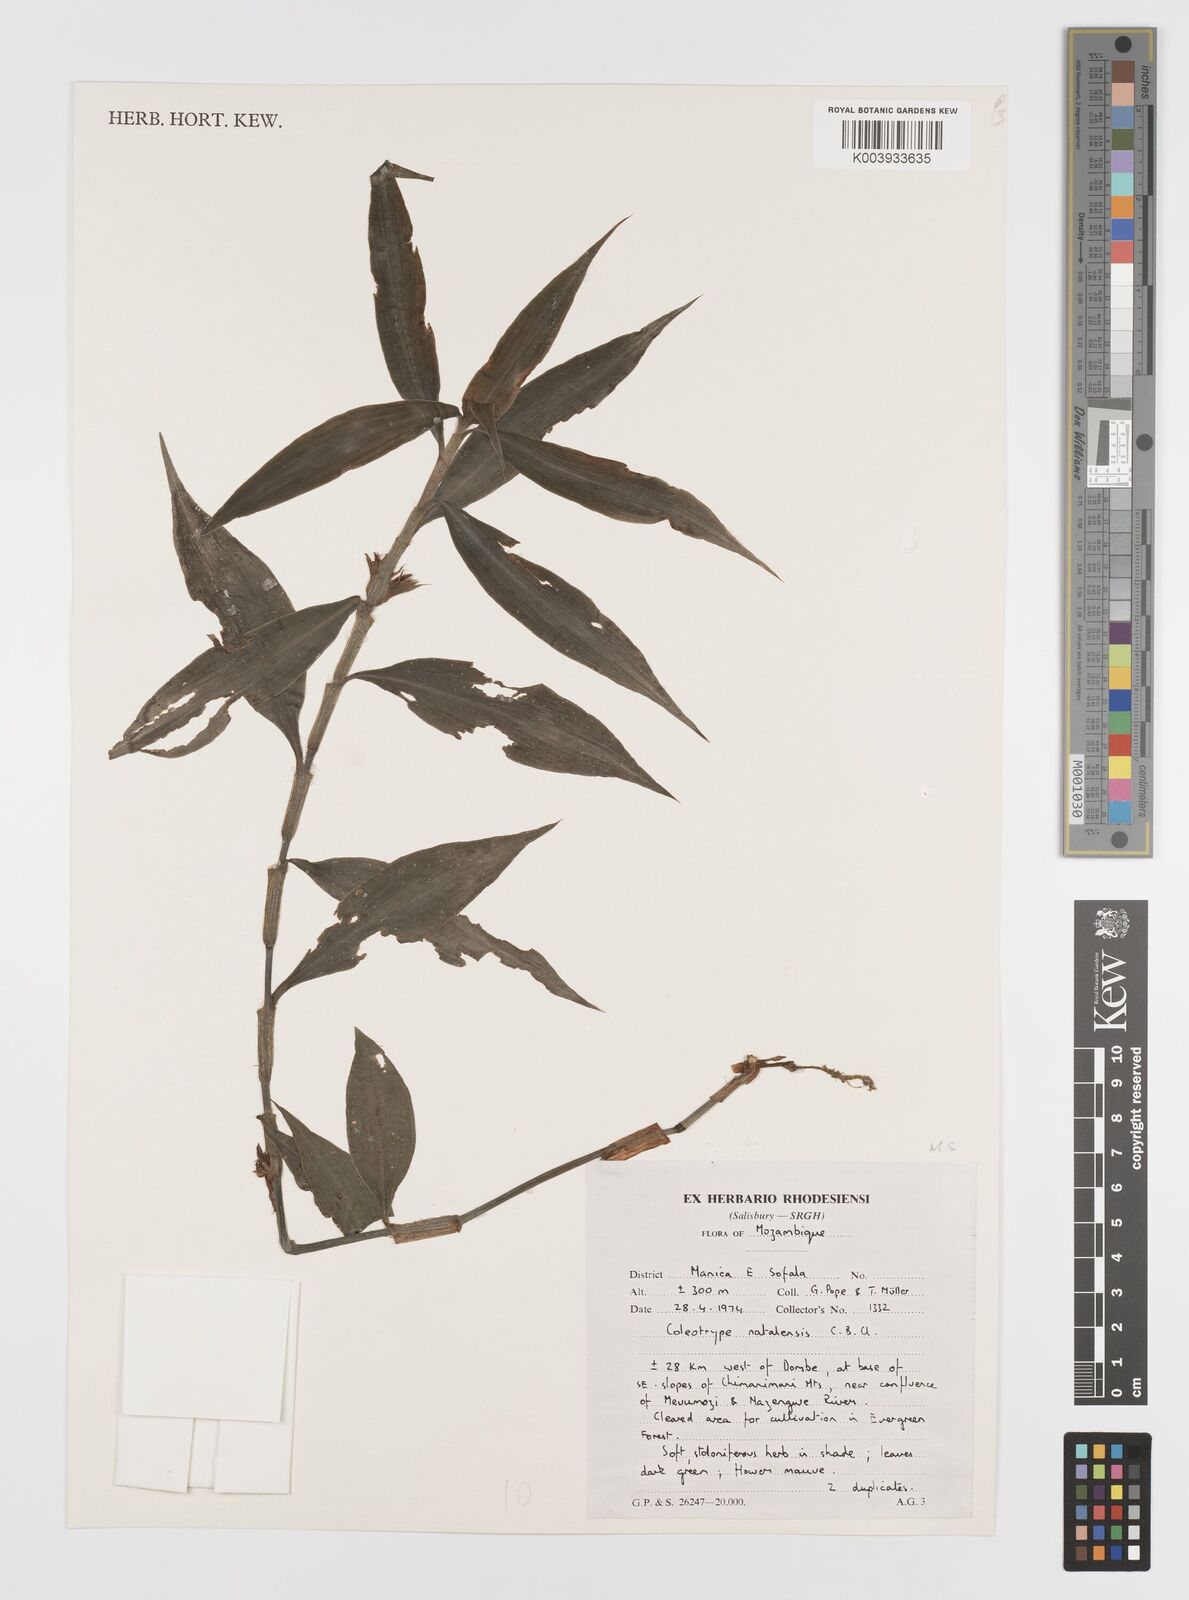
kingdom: Plantae
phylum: Tracheophyta
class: Liliopsida
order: Commelinales
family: Commelinaceae
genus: Coleotrype
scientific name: Coleotrype natalensis
